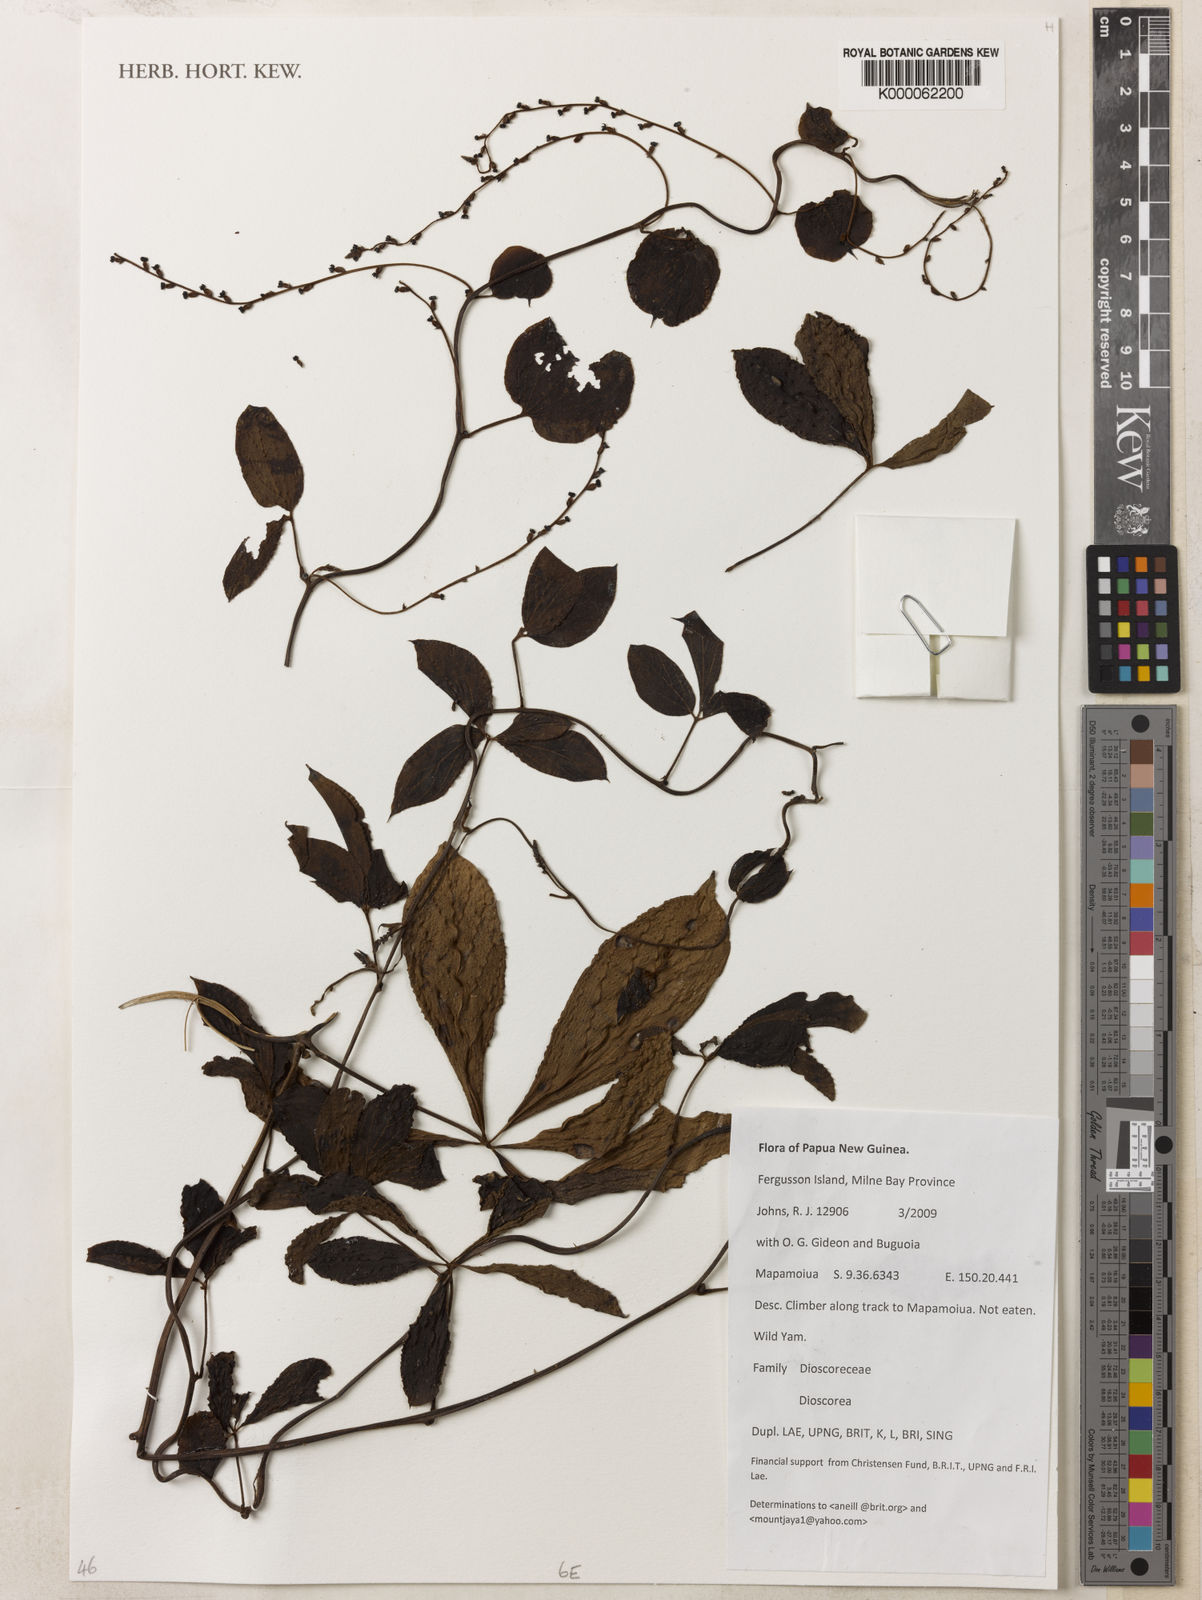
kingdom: Plantae
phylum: Tracheophyta
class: Liliopsida
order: Dioscoreales
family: Dioscoreaceae
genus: Dioscorea
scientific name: Dioscorea pentaphylla
